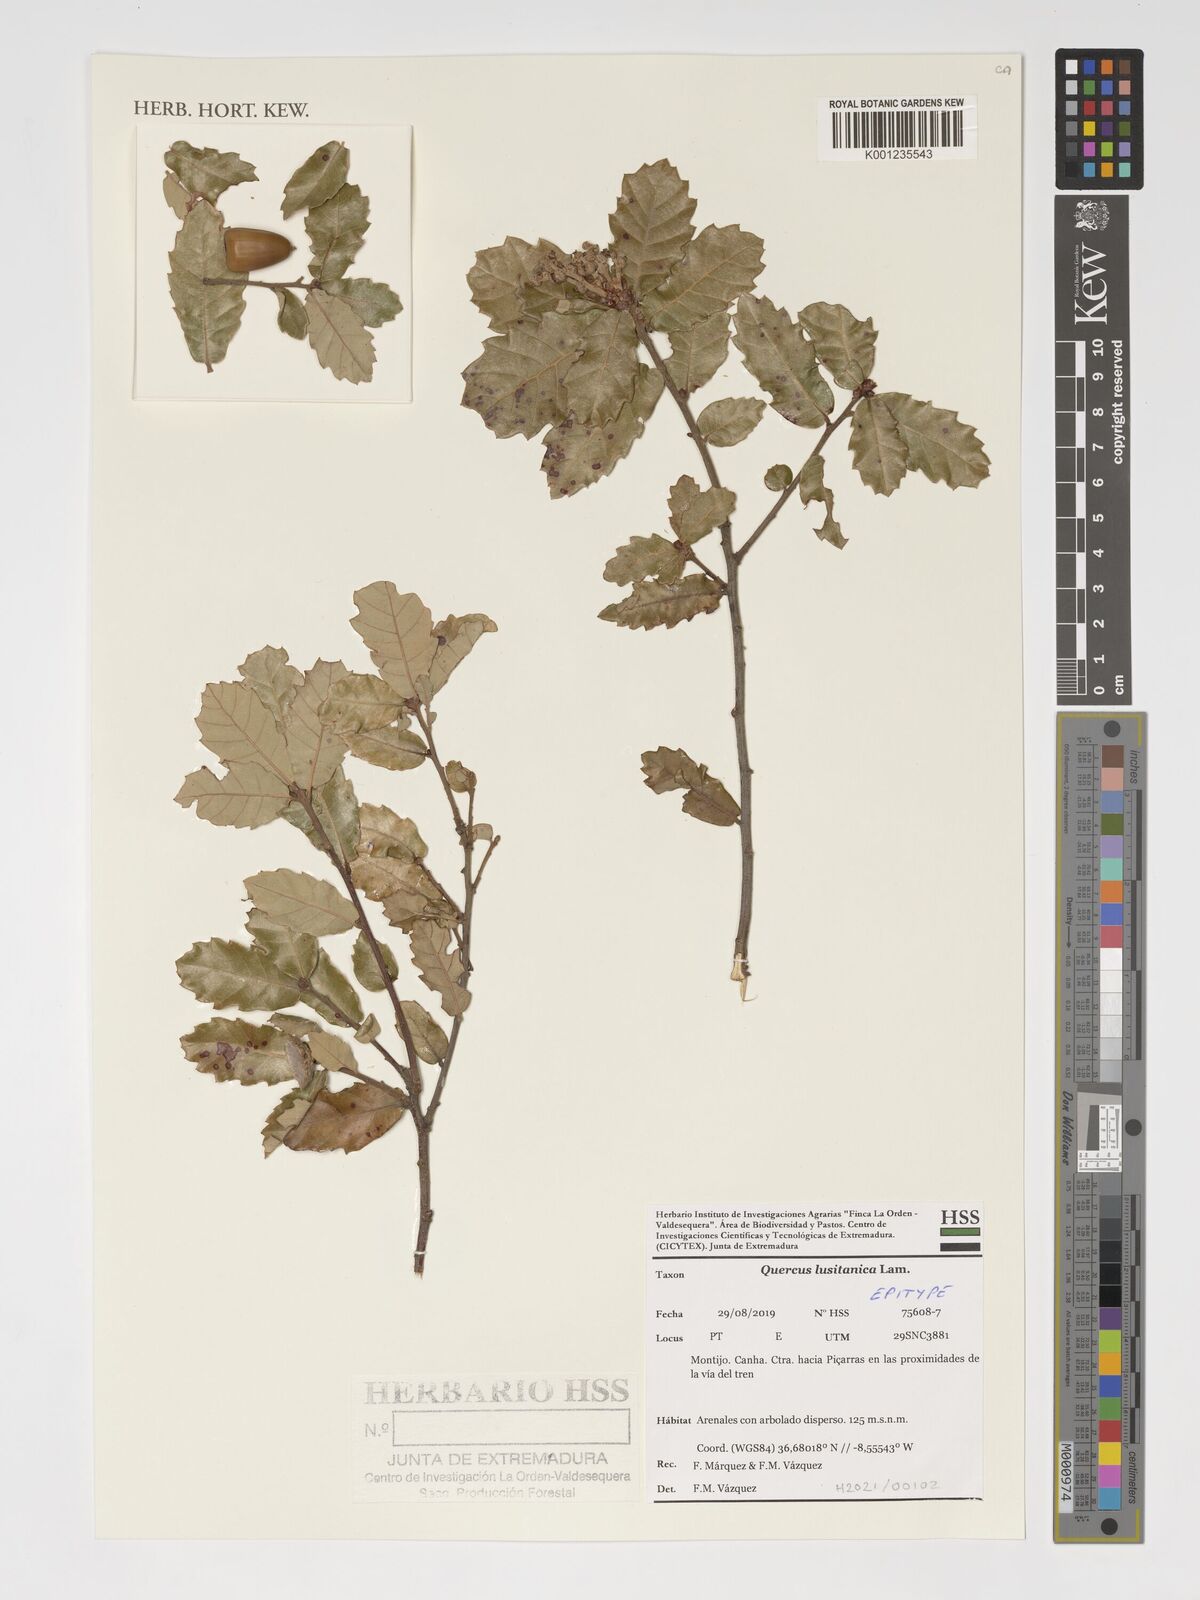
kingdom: Plantae
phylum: Tracheophyta
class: Magnoliopsida
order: Fagales
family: Fagaceae
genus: Quercus
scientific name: Quercus lusitanica
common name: Scrub gall oak
